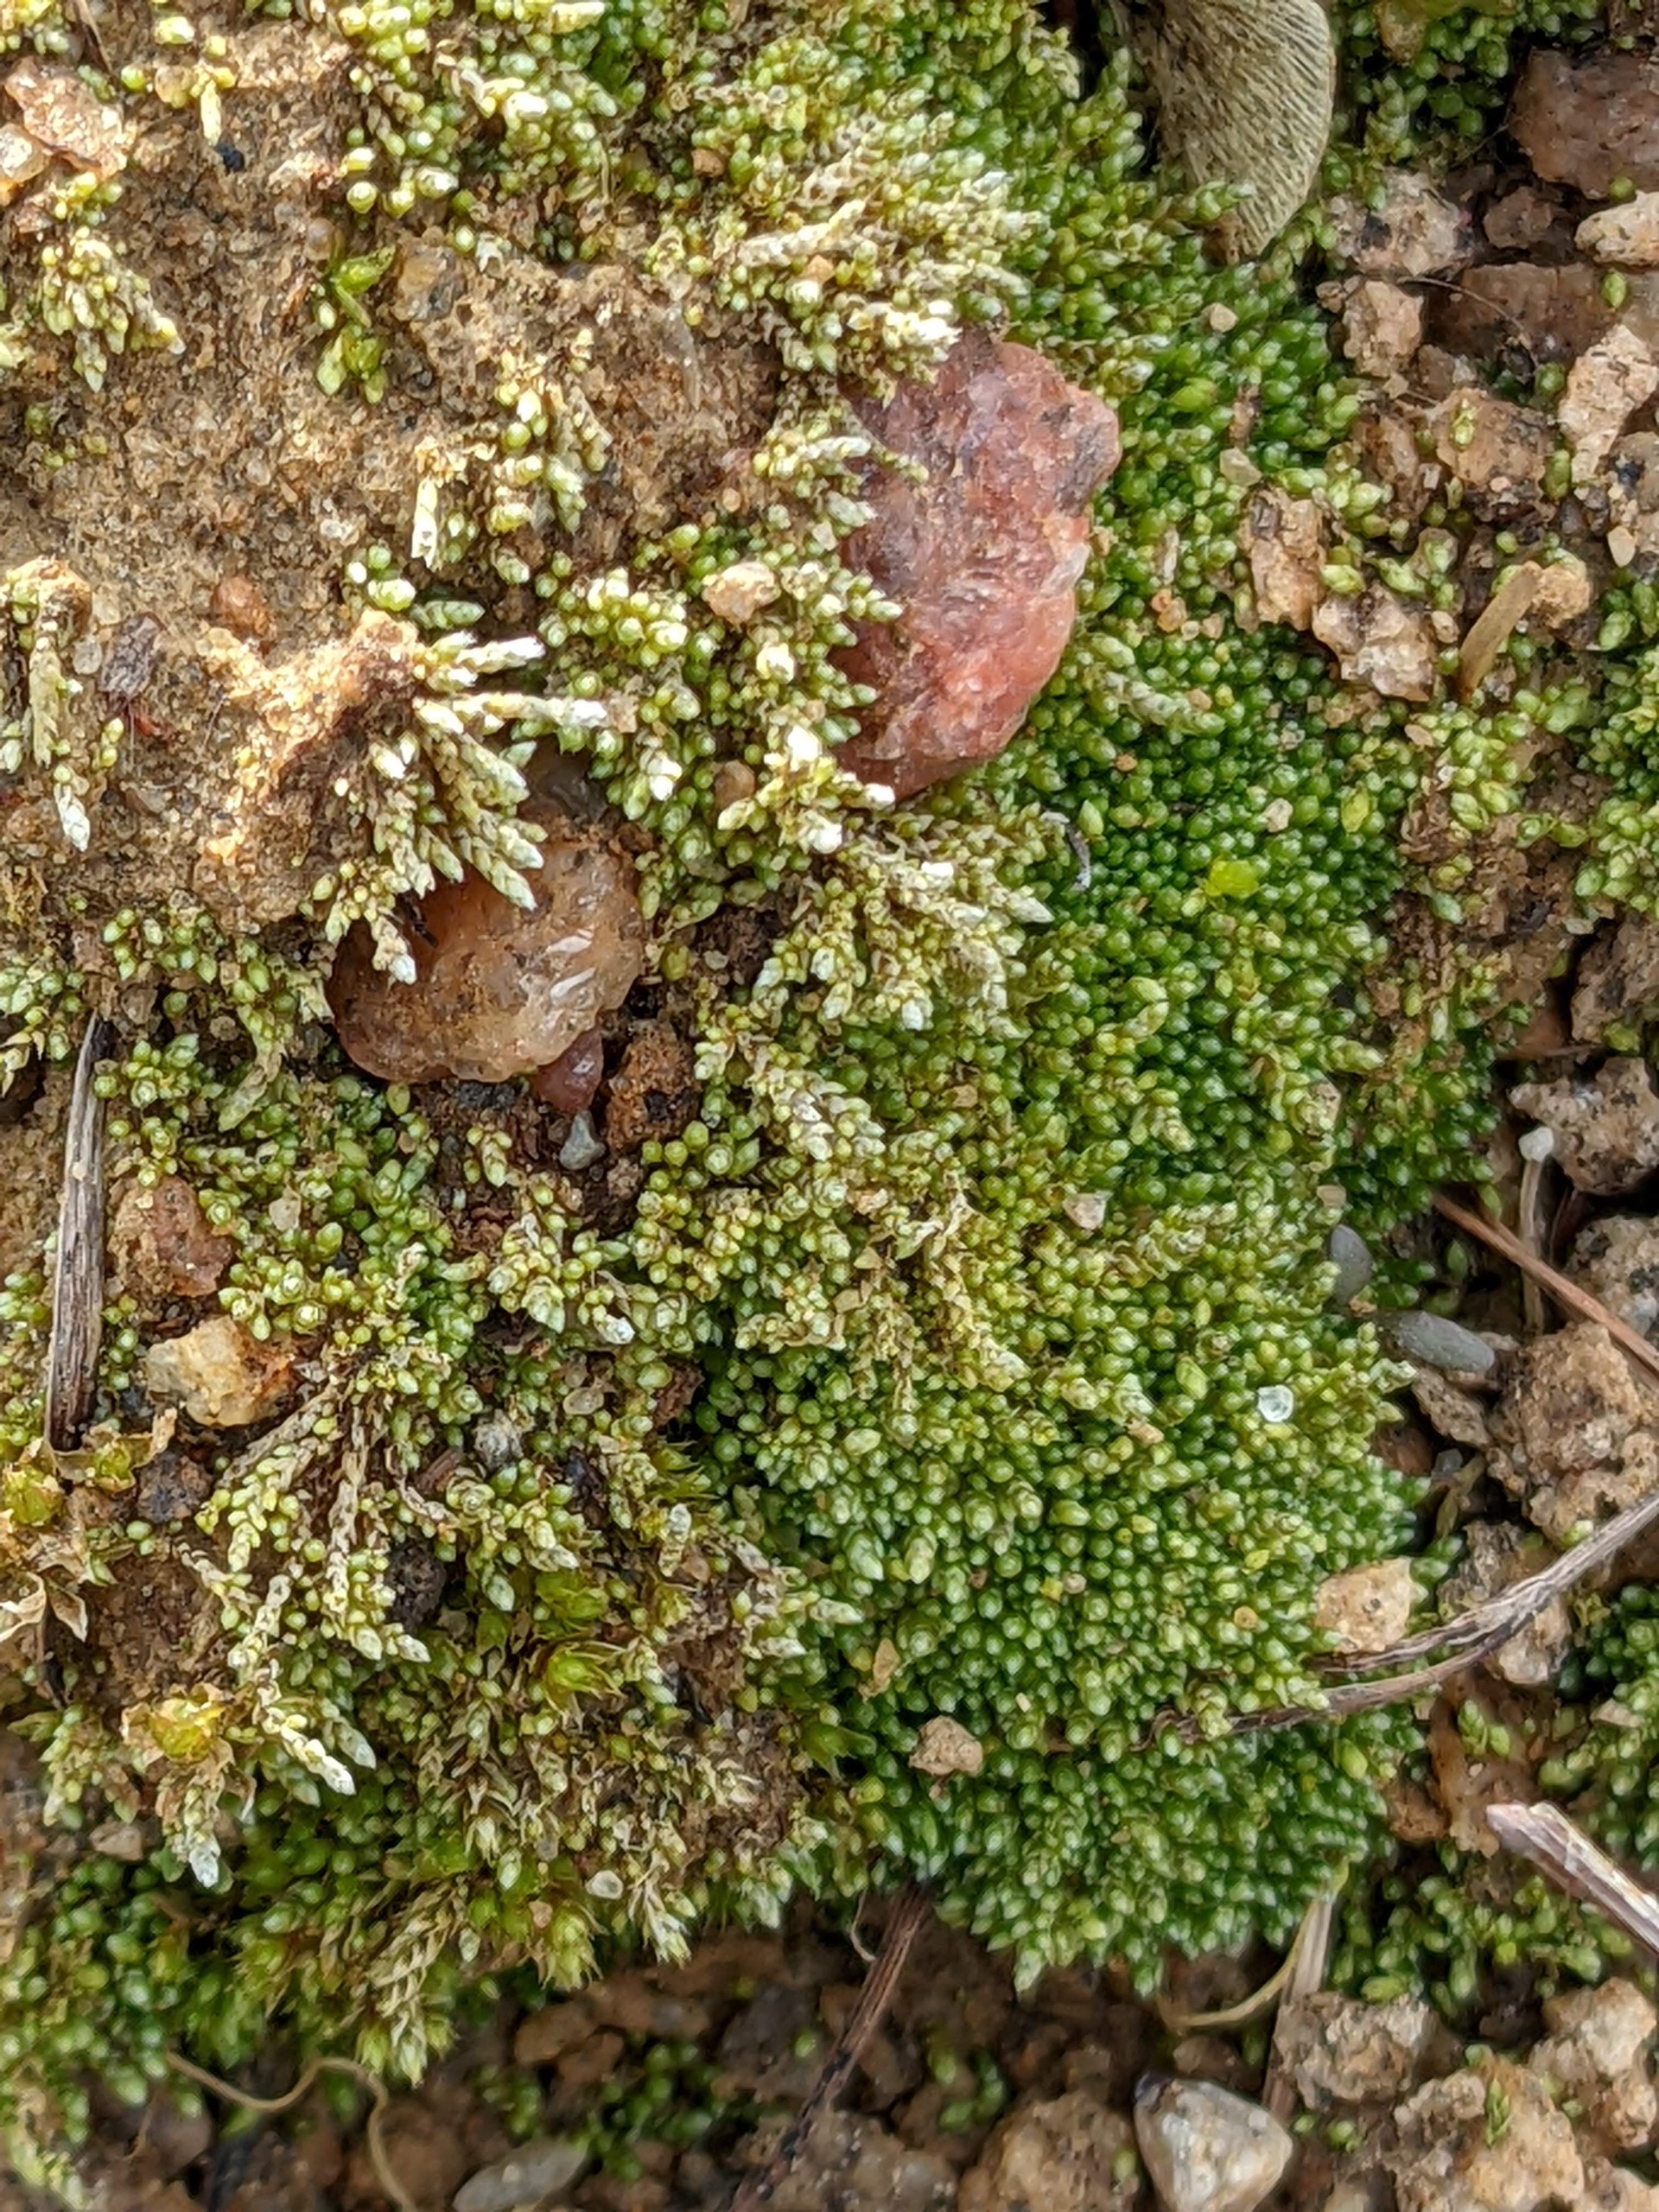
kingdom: Plantae
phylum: Bryophyta
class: Bryopsida
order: Bryales
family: Bryaceae
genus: Bryum
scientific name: Bryum argenteum
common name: Sølv-bryum
